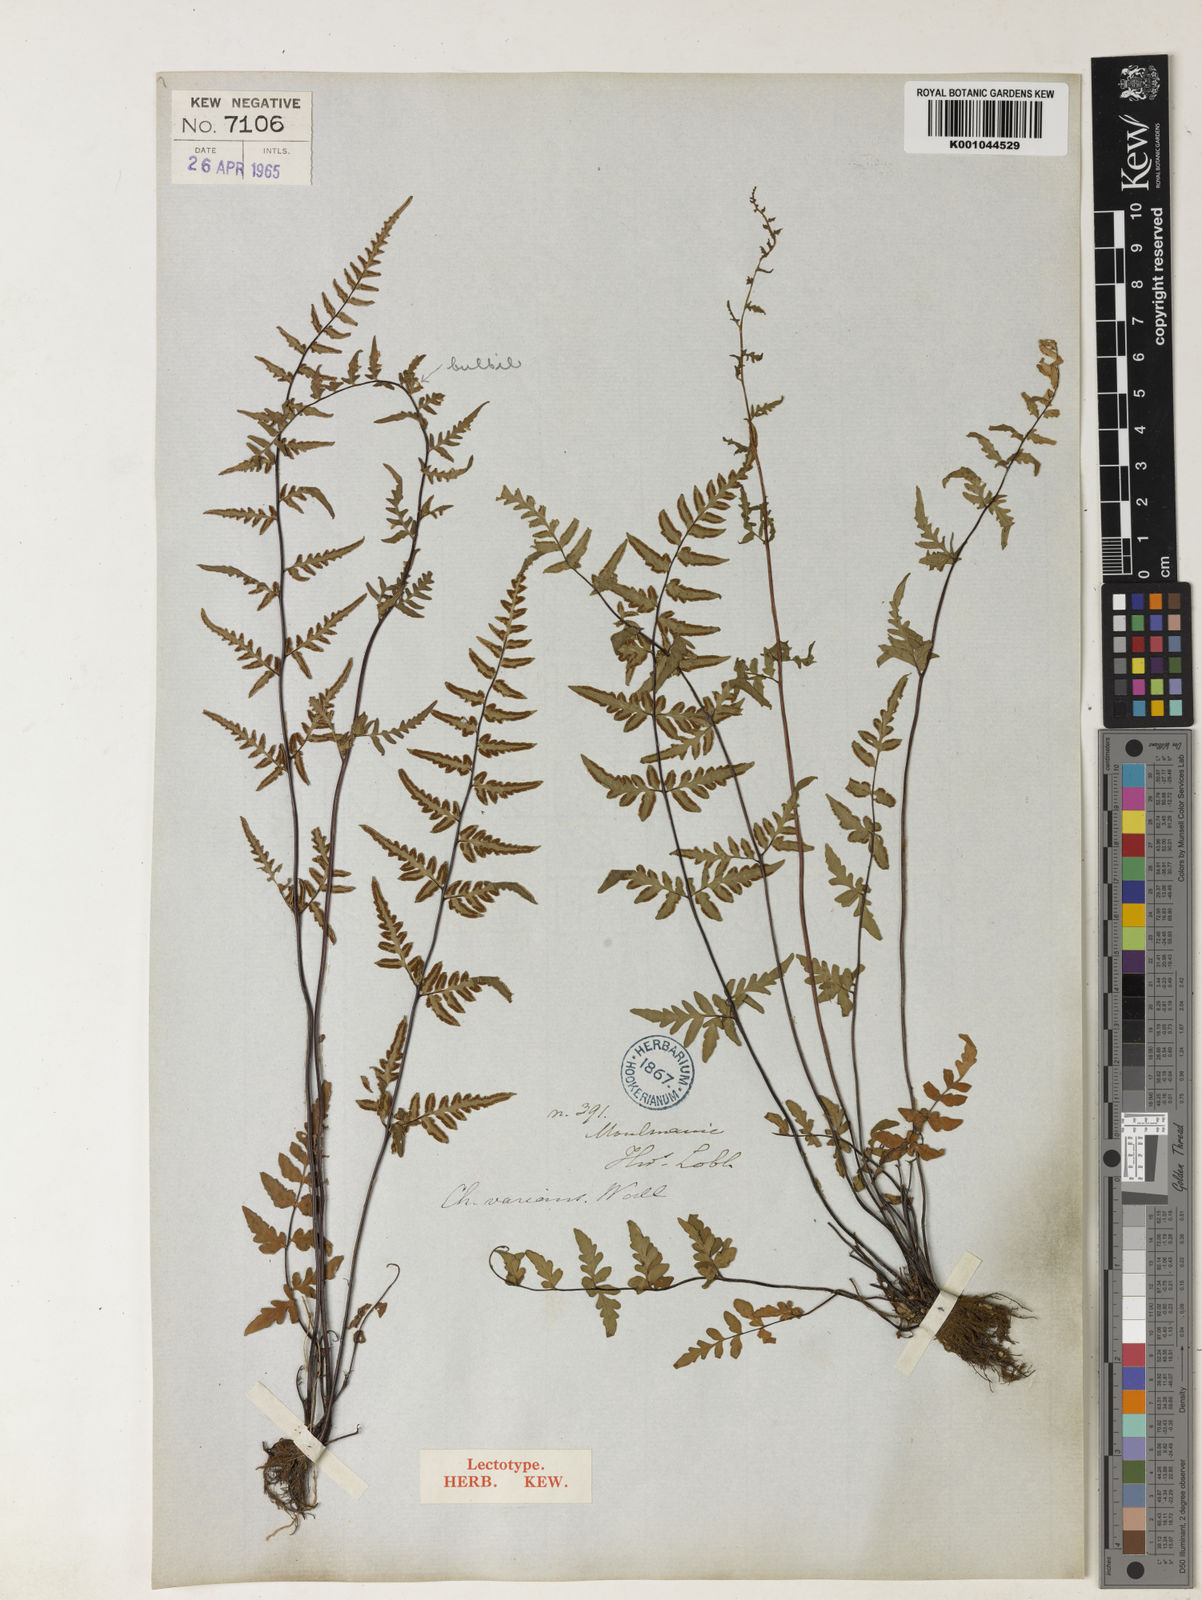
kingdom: Plantae
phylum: Tracheophyta
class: Polypodiopsida
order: Polypodiales
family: Pteridaceae
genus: Cheilanthes
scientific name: Cheilanthes
